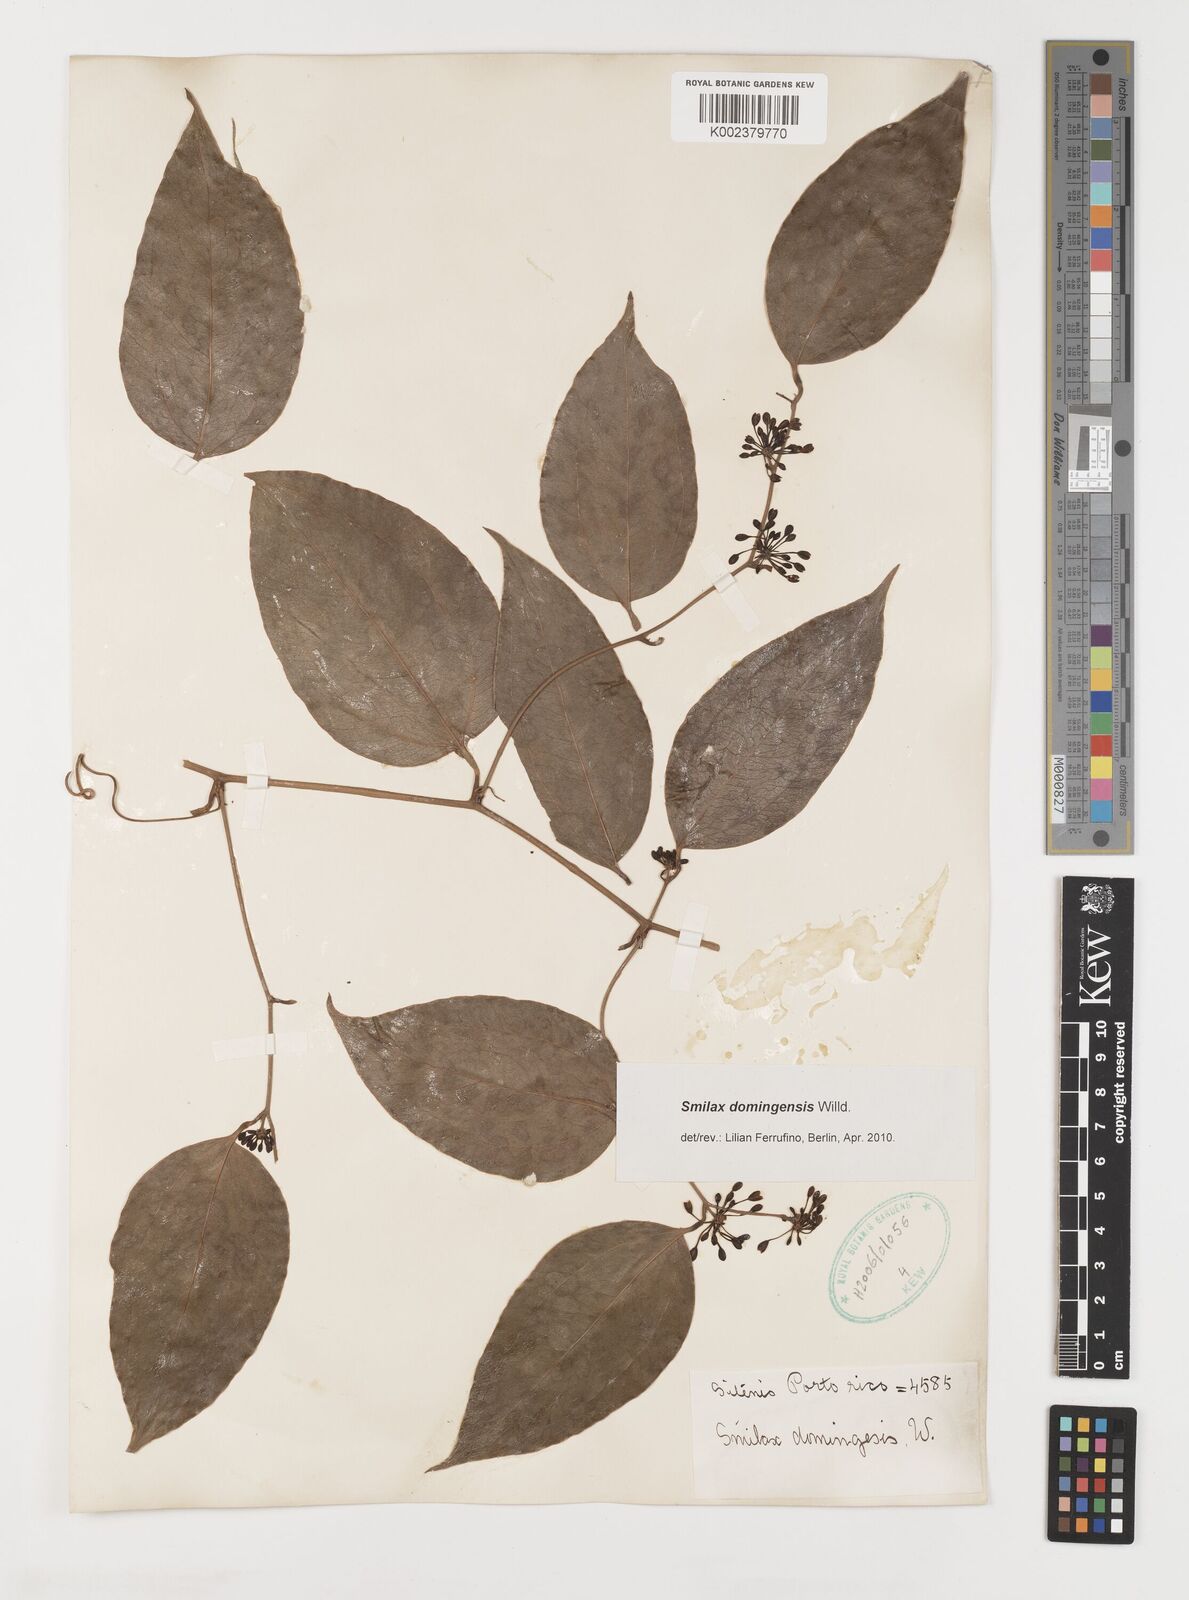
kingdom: Plantae
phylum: Tracheophyta
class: Liliopsida
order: Liliales
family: Smilacaceae
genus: Smilax
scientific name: Smilax domingensis
